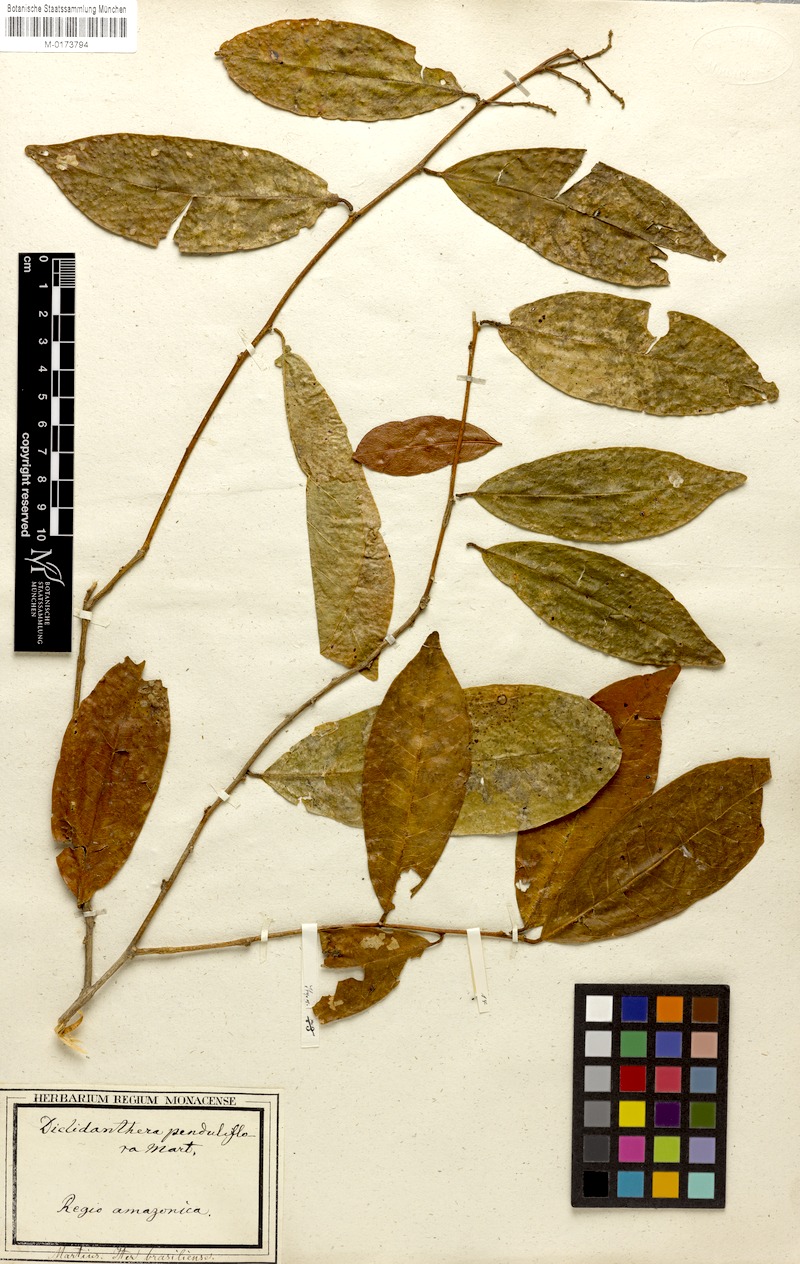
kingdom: Plantae
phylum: Tracheophyta
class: Magnoliopsida
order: Fabales
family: Polygalaceae
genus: Diclidanthera
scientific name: Diclidanthera penduliflora
